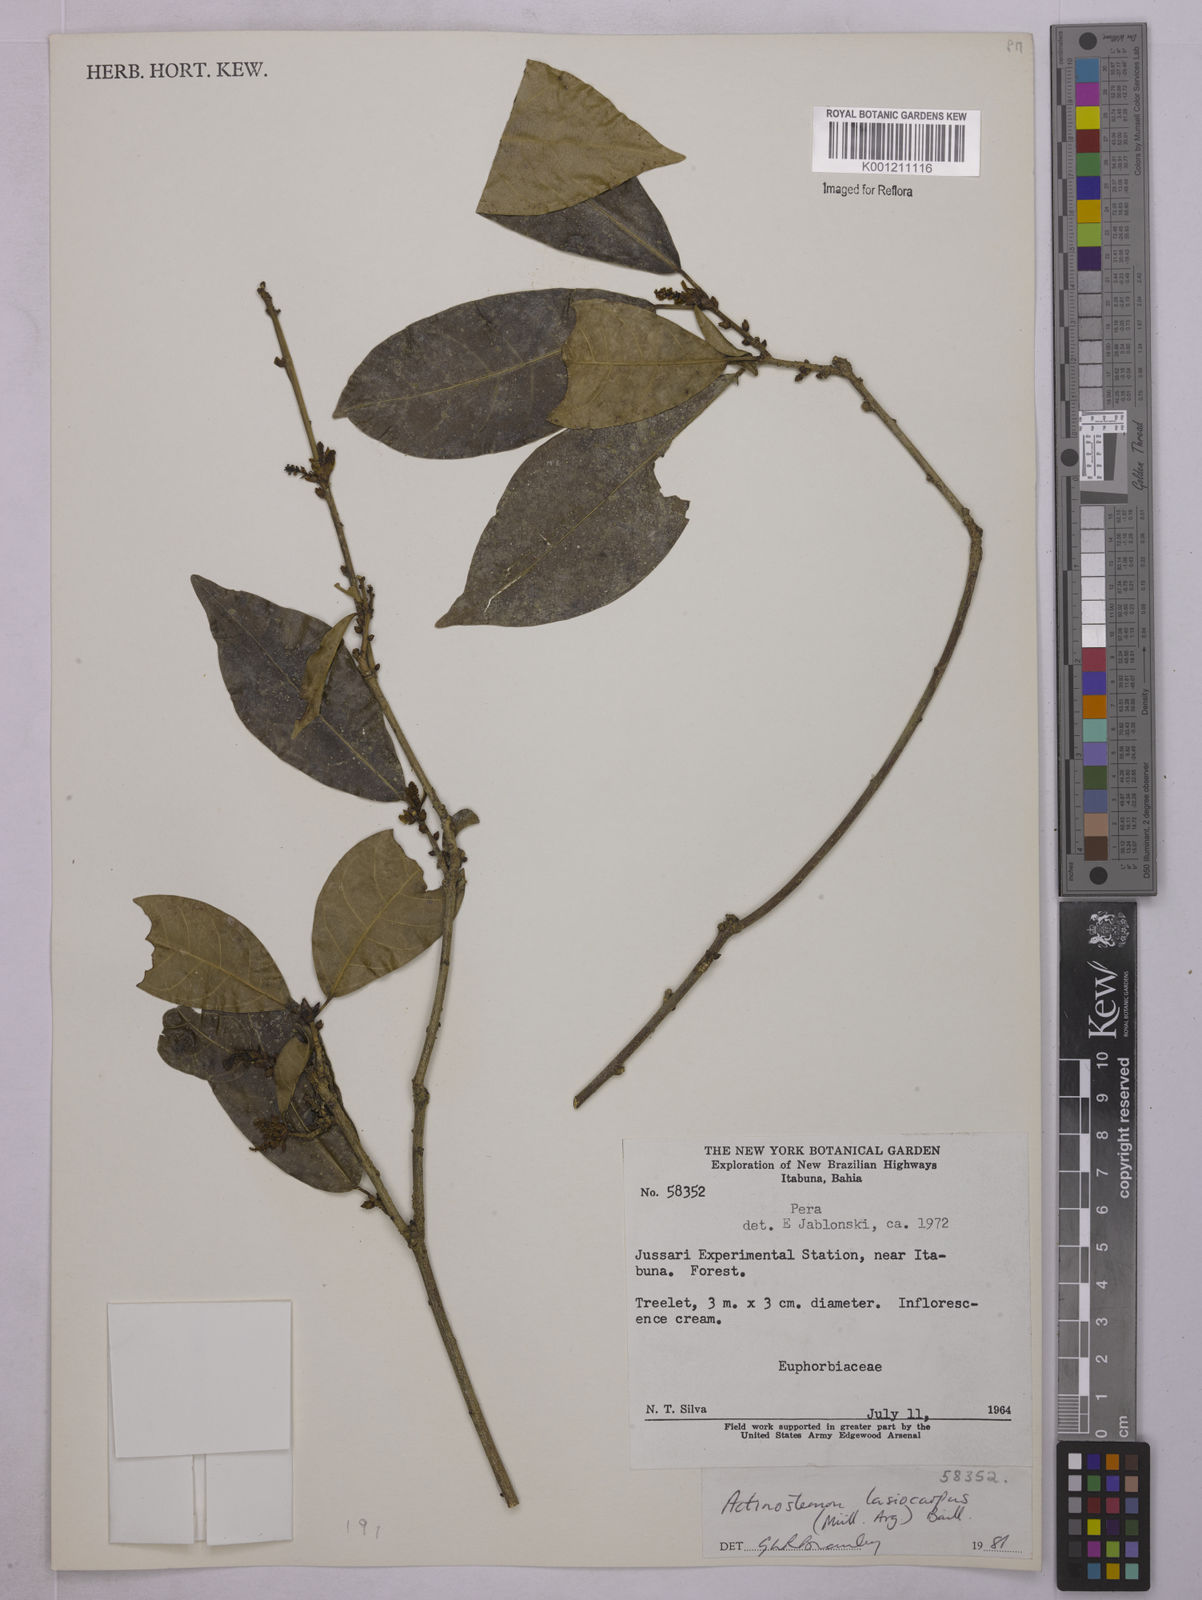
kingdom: Plantae
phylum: Tracheophyta
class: Magnoliopsida
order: Malpighiales
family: Euphorbiaceae
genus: Actinostemon
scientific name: Actinostemon
